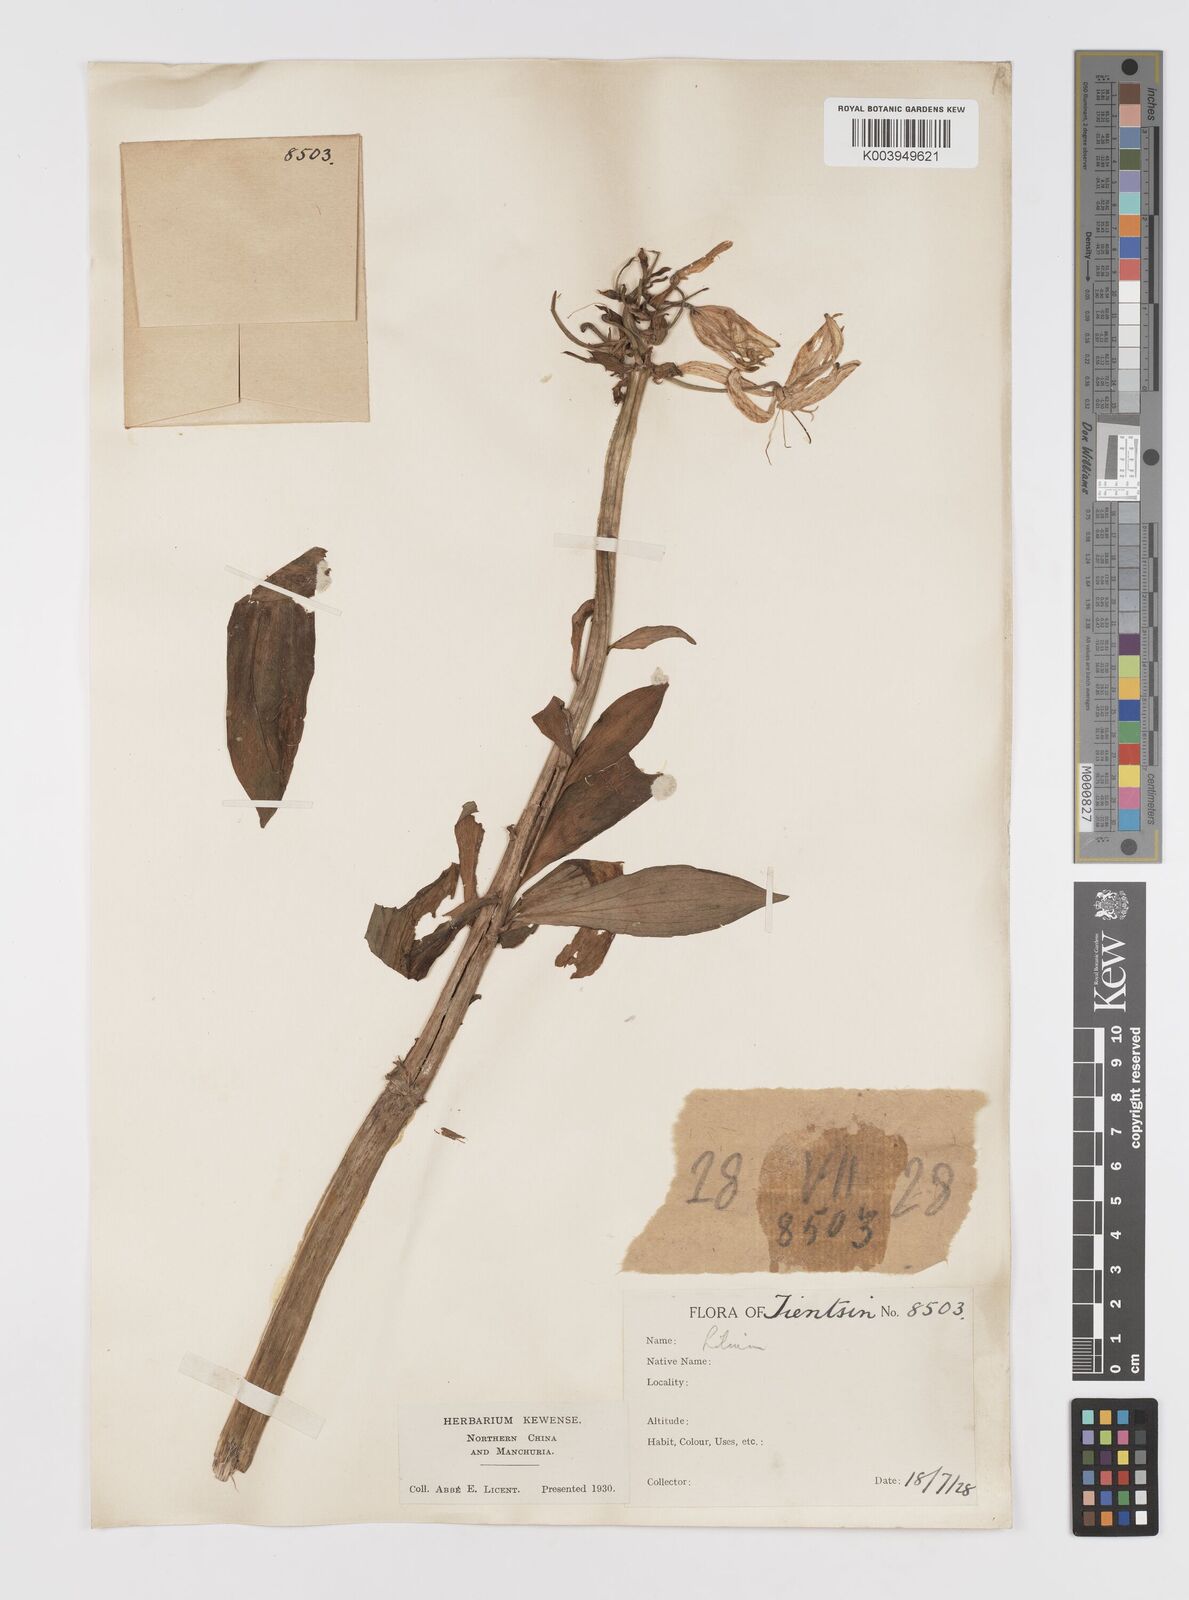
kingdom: Plantae
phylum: Tracheophyta
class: Liliopsida
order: Liliales
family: Liliaceae
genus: Lilium
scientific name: Lilium
